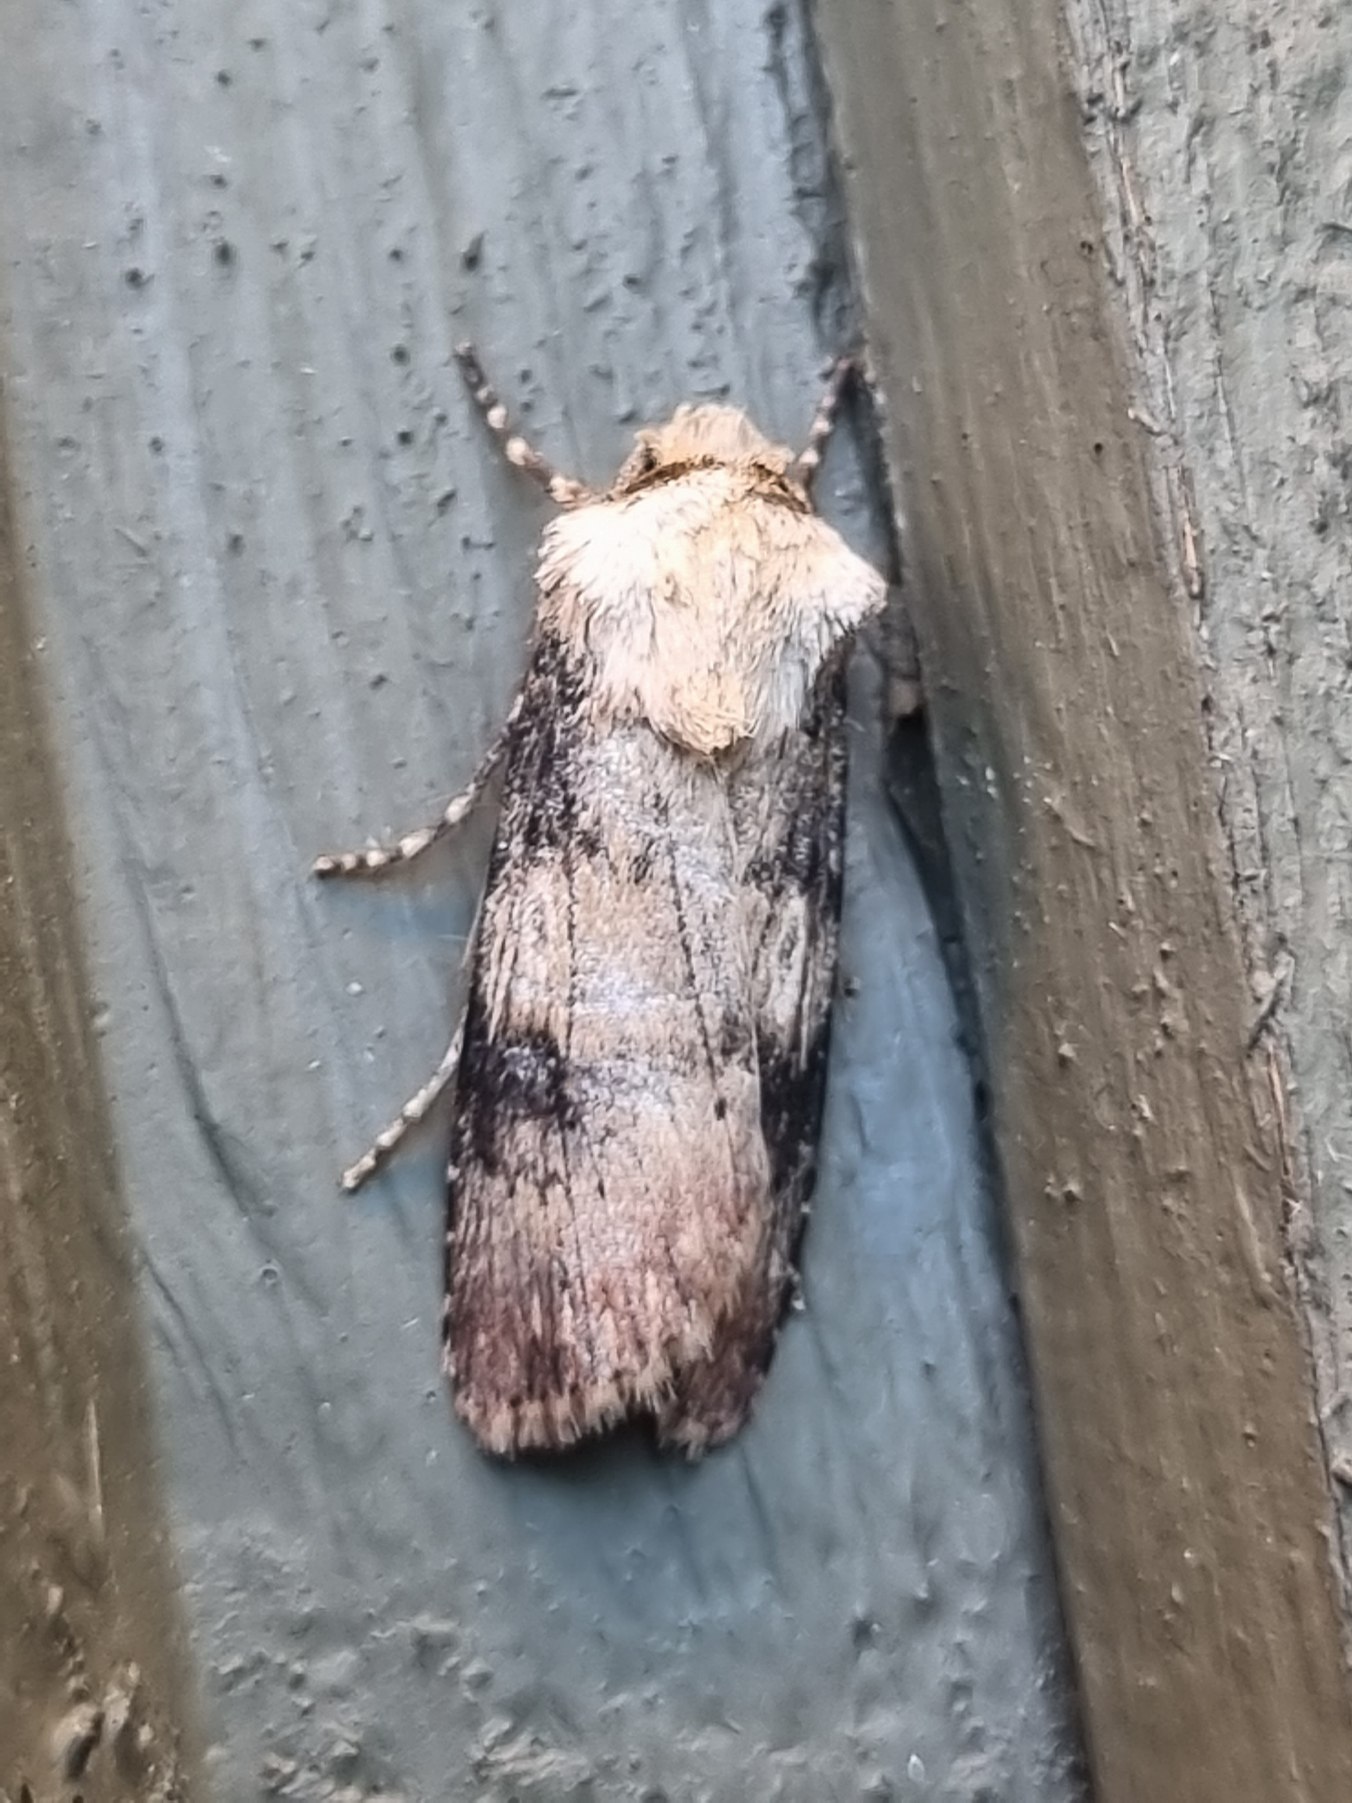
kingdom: Animalia
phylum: Arthropoda
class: Insecta
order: Lepidoptera
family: Noctuidae
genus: Agrotis
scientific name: Agrotis puta
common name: Frønnet landmand
